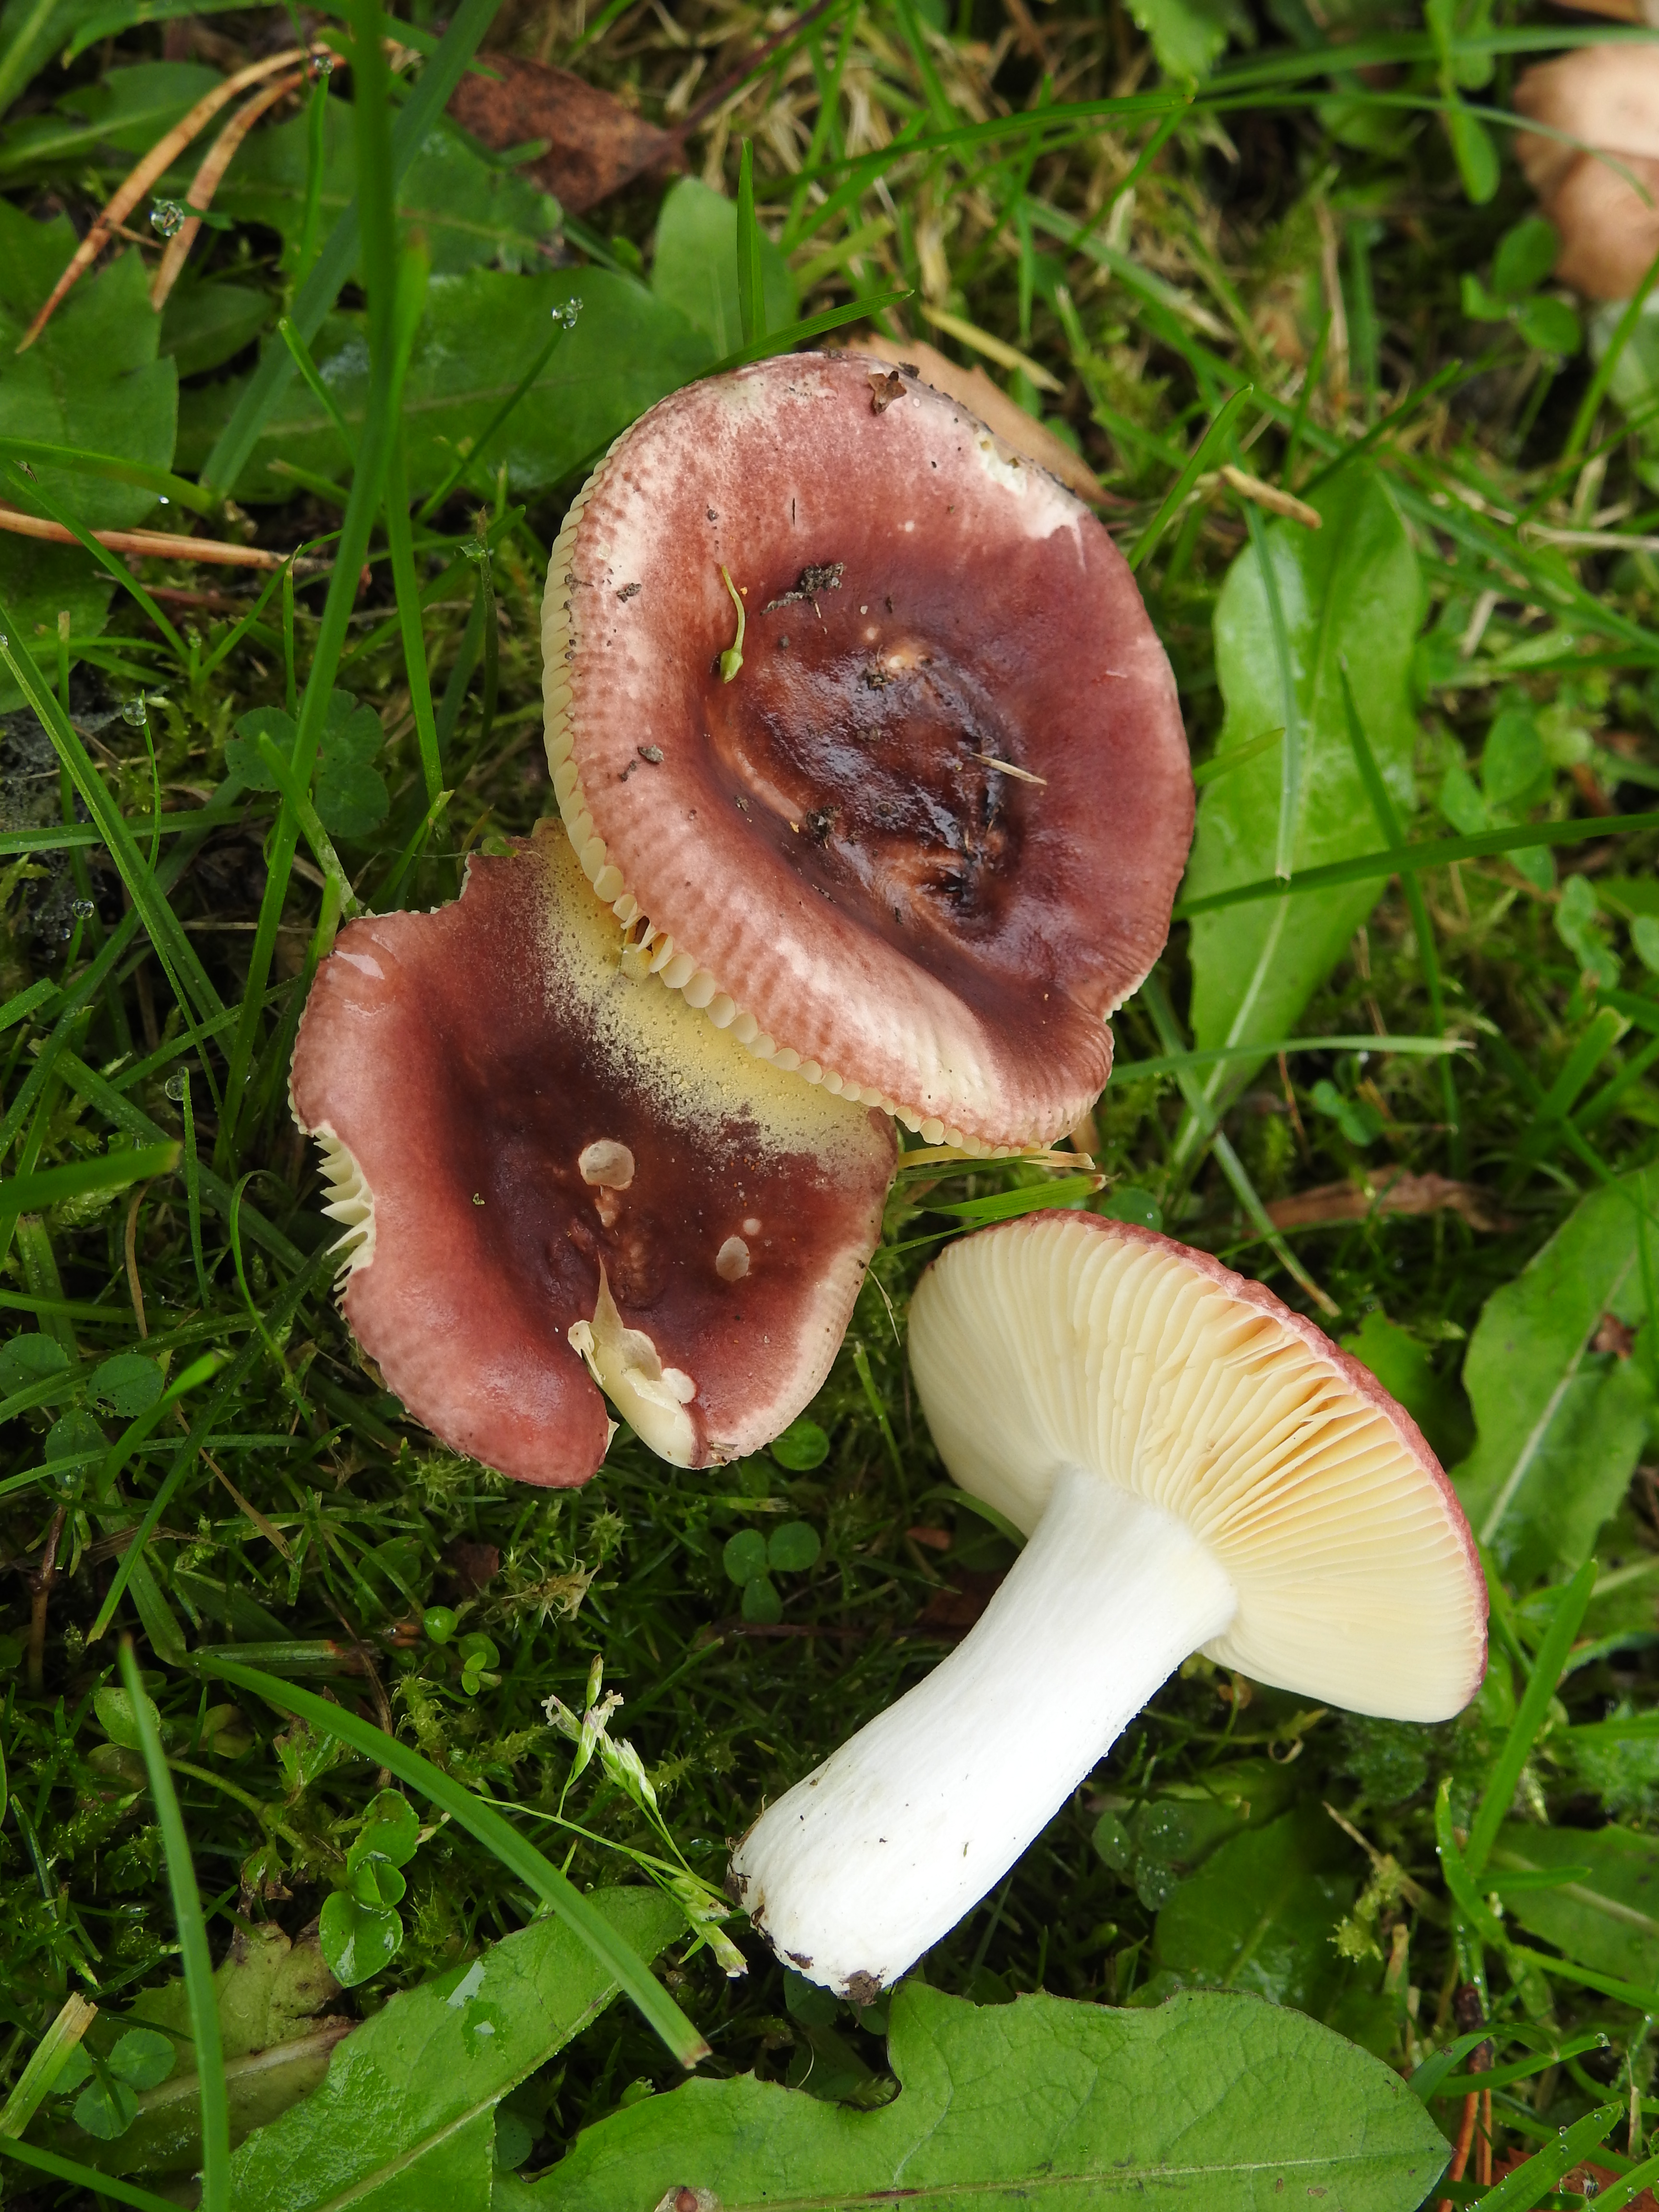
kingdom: Fungi
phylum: Basidiomycota
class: Agaricomycetes
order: Russulales
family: Russulaceae
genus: Russula
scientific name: Russula cessans
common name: Tardy brittlegill
